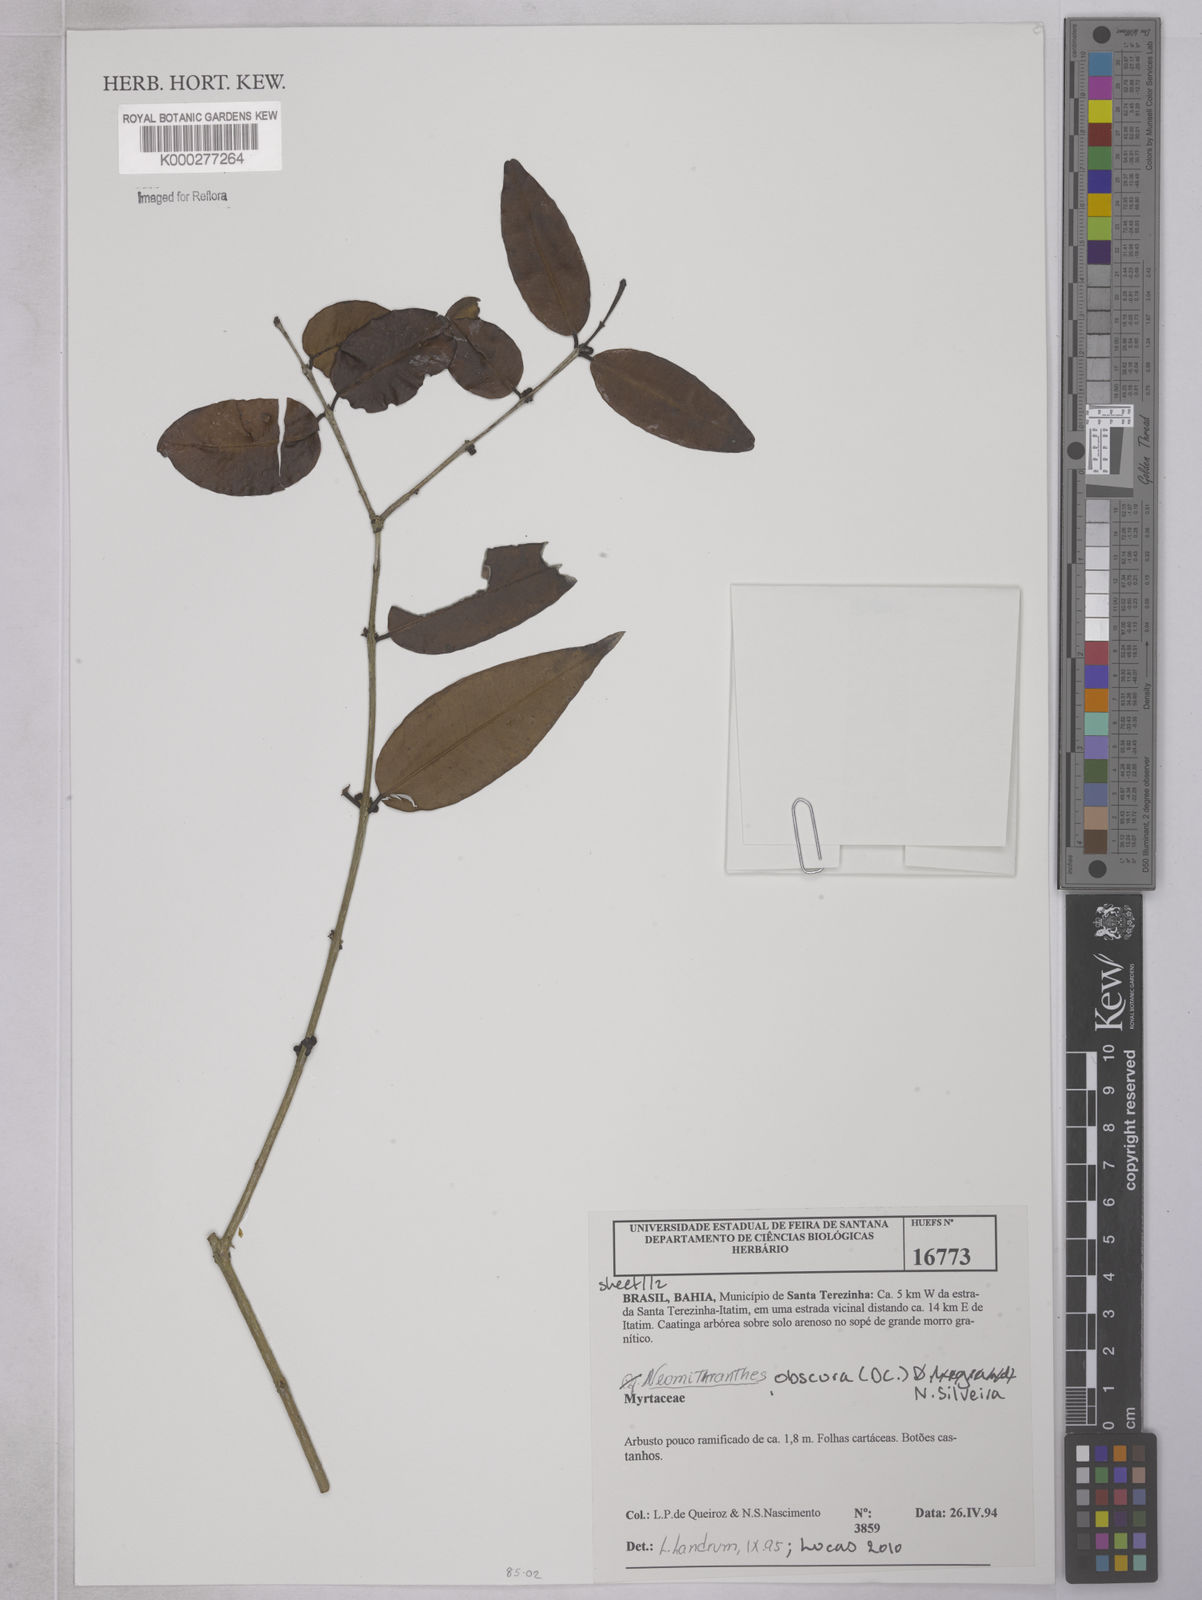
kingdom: Plantae
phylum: Tracheophyta
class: Magnoliopsida
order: Myrtales
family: Myrtaceae
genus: Neomitranthes
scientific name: Neomitranthes obscura
